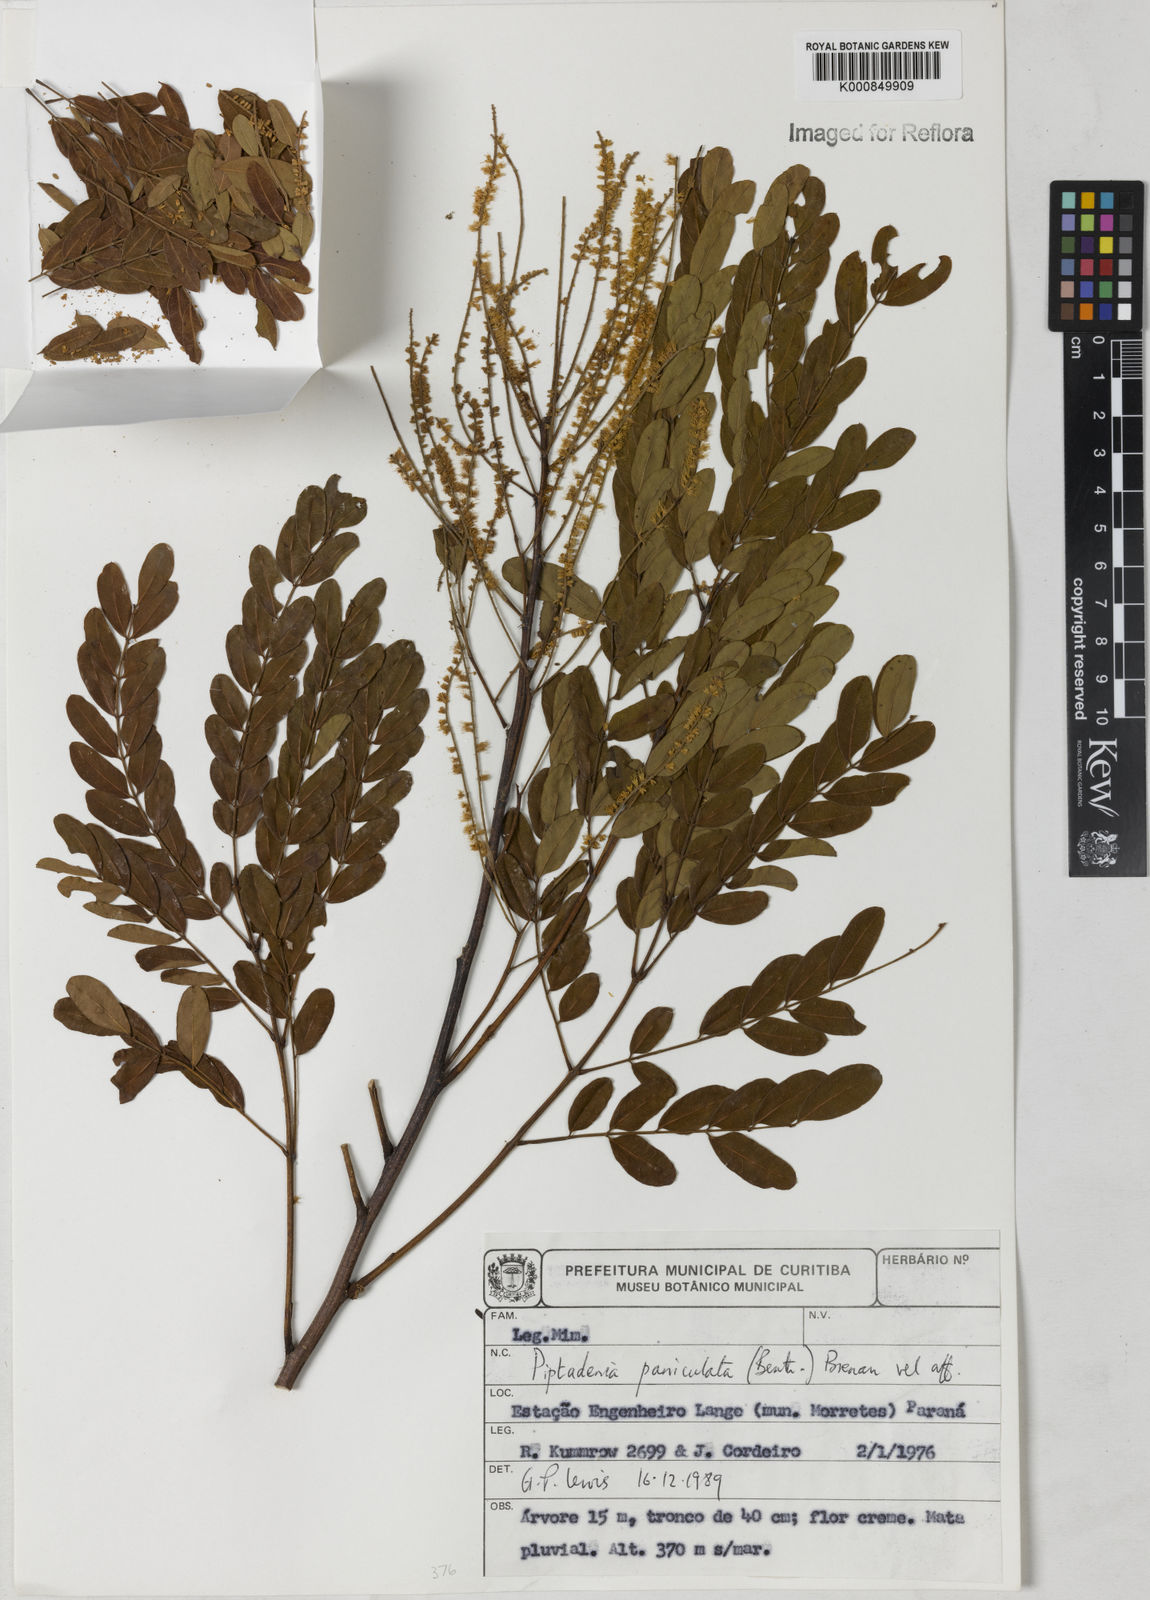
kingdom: Plantae
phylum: Tracheophyta
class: Magnoliopsida
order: Fabales
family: Fabaceae
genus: Piptadenia
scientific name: Piptadenia paniculata
